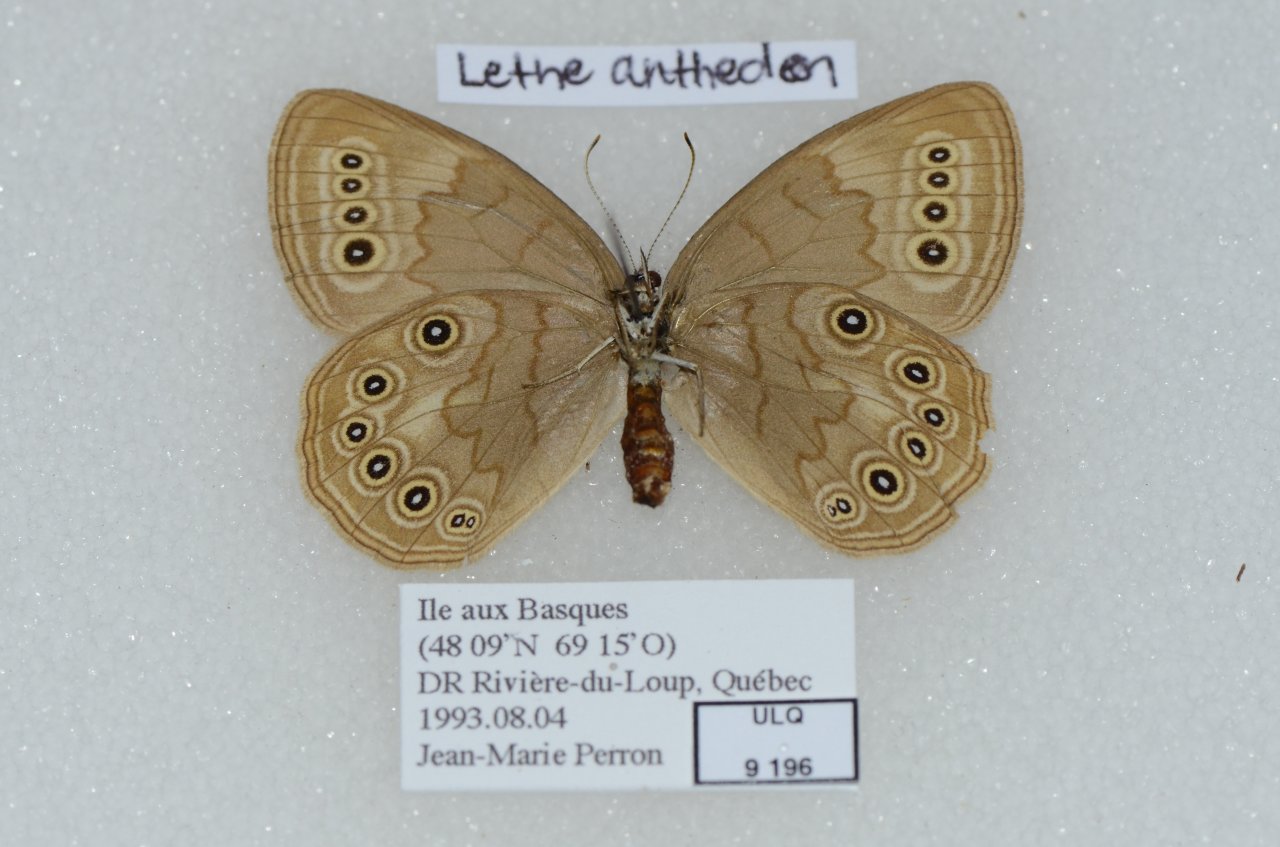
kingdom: Animalia
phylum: Arthropoda
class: Insecta
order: Lepidoptera
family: Nymphalidae
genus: Lethe
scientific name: Lethe
